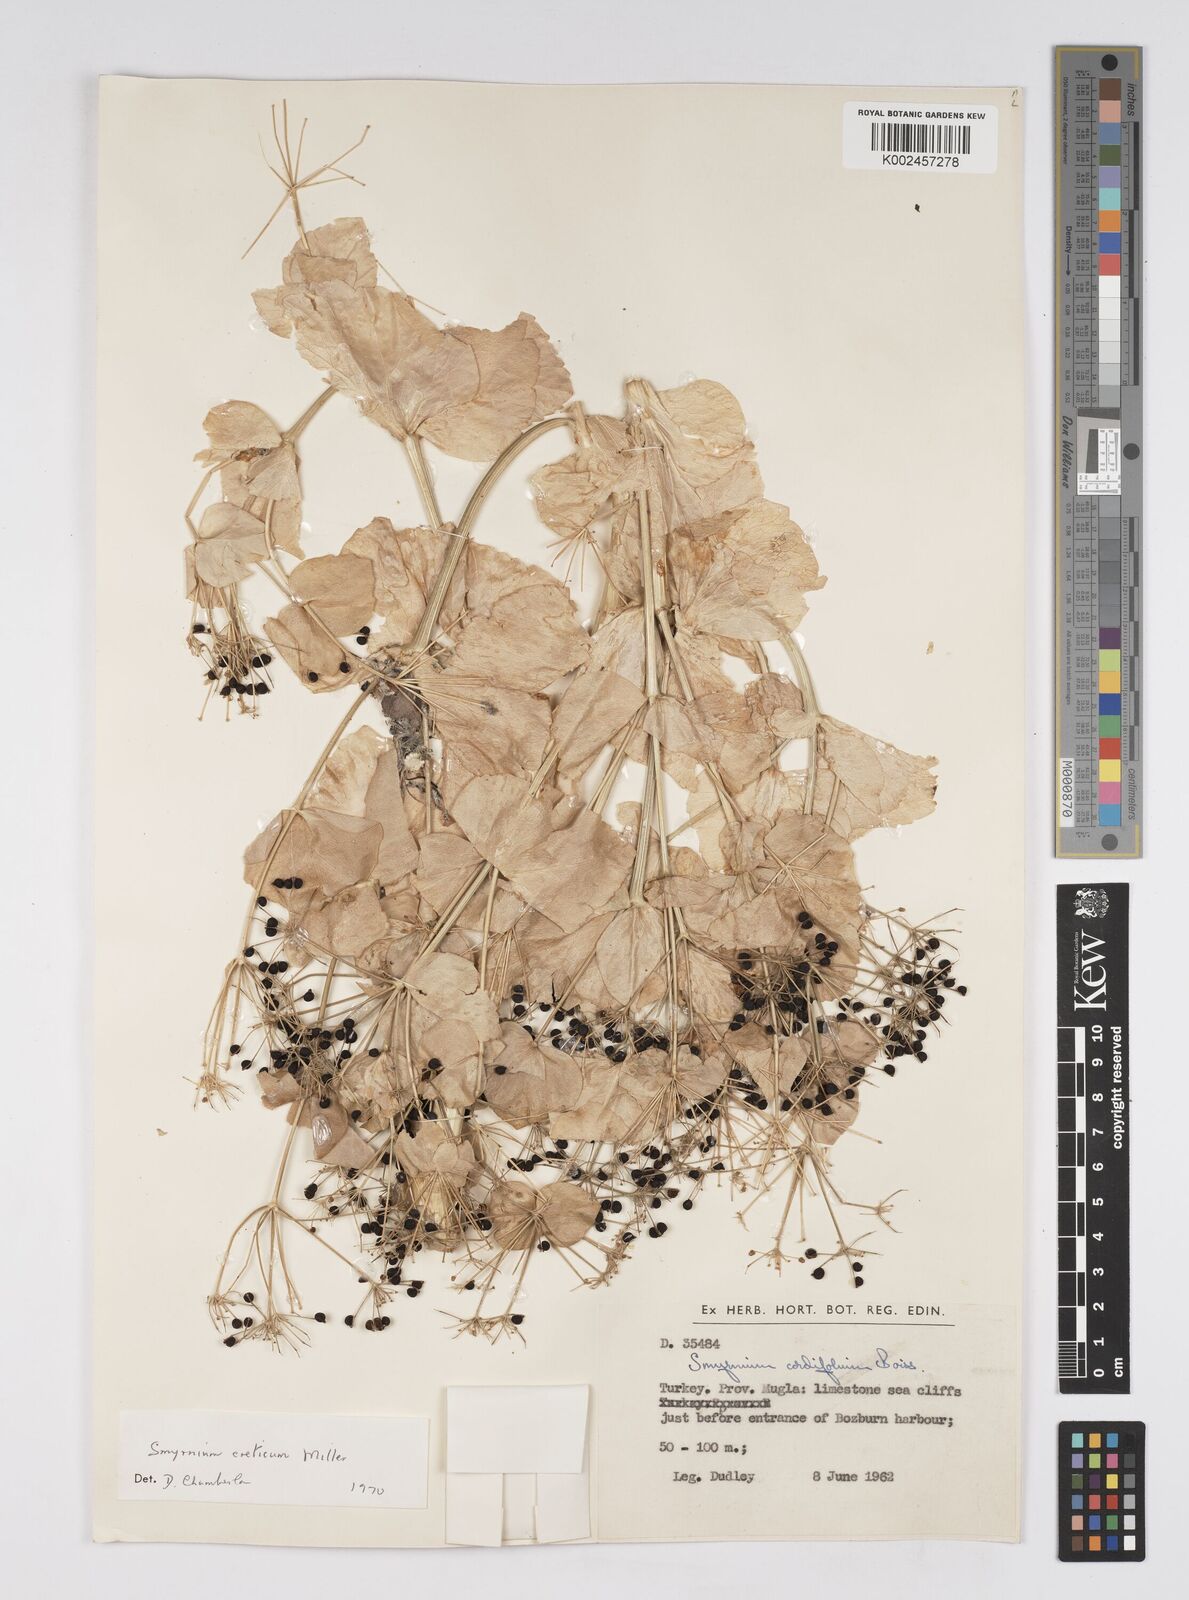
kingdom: Plantae
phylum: Tracheophyta
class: Magnoliopsida
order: Apiales
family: Apiaceae
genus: Smyrnium
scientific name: Smyrnium creticum
